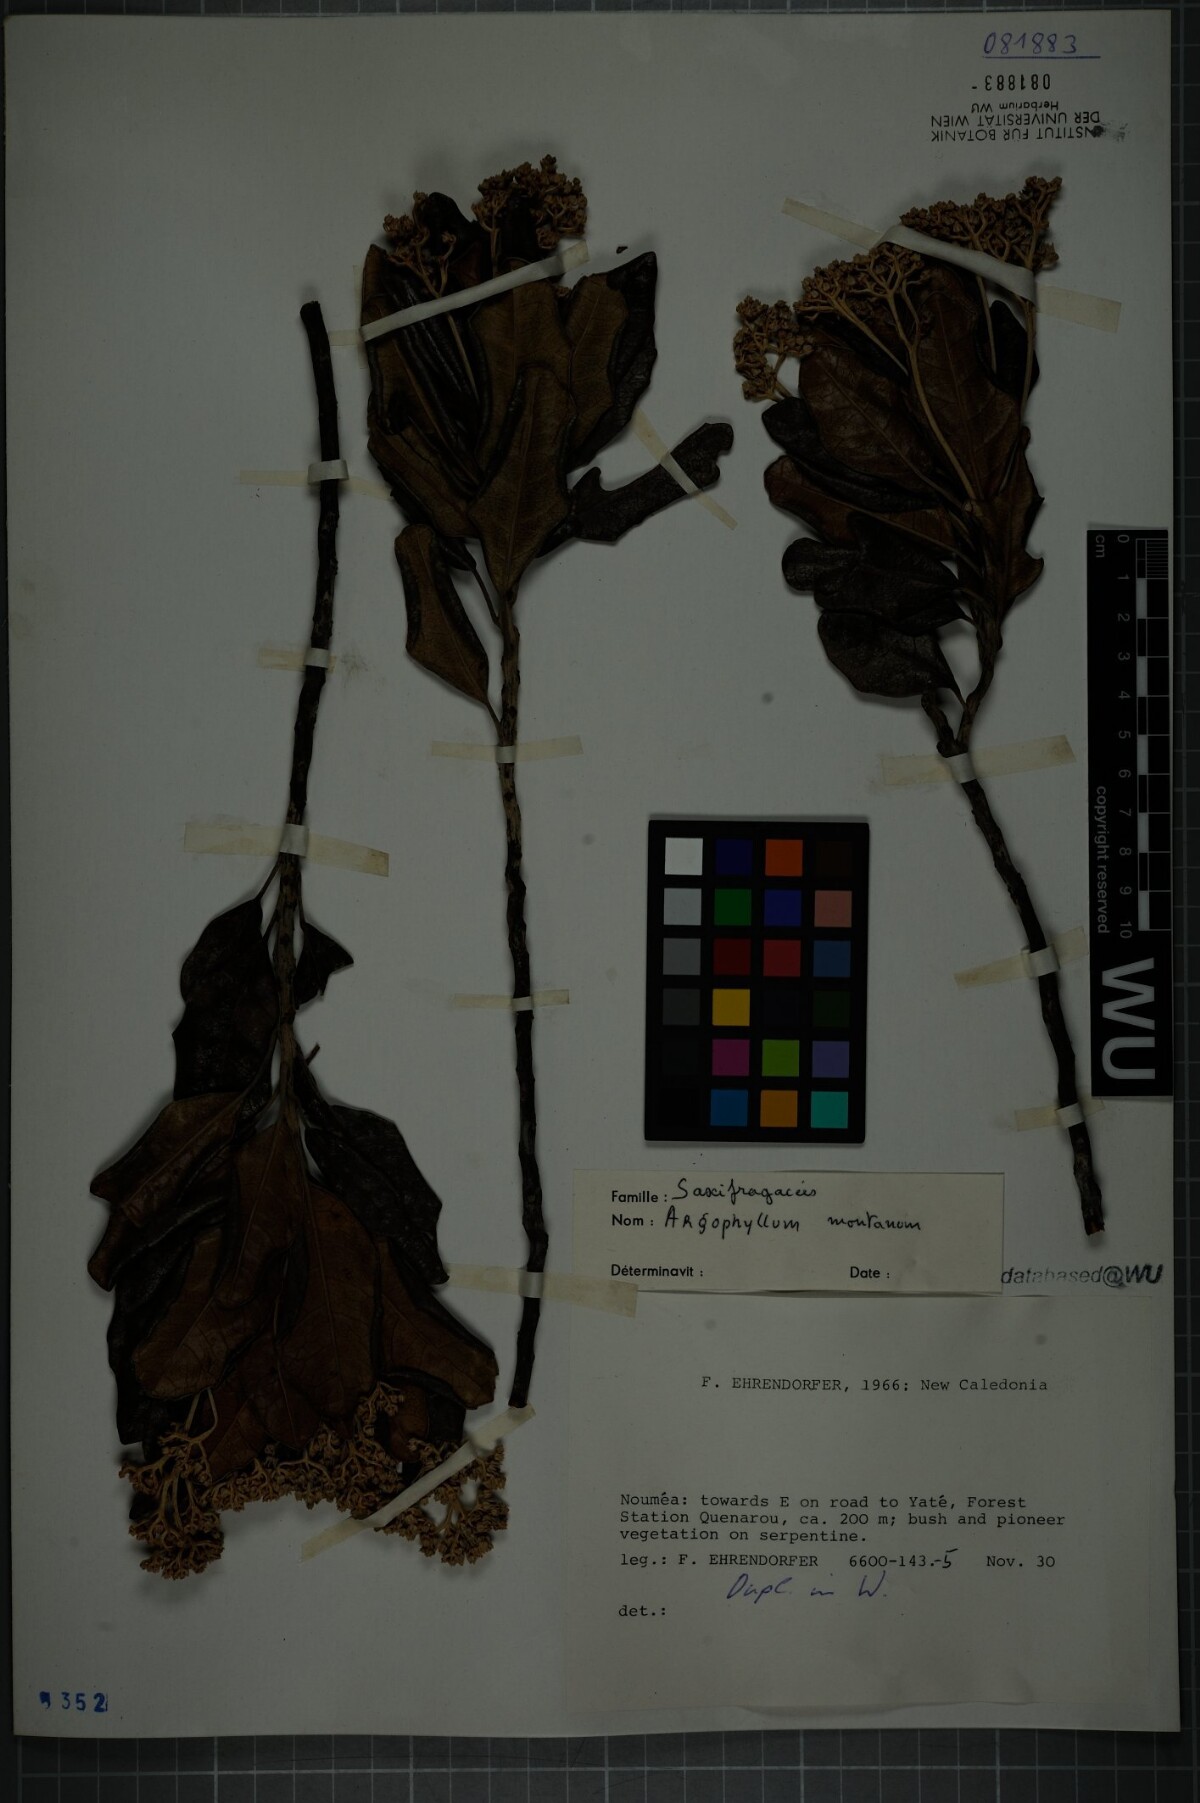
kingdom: Plantae
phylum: Tracheophyta
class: Magnoliopsida
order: Asterales
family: Argophyllaceae
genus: Argophyllum
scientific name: Argophyllum montanum
